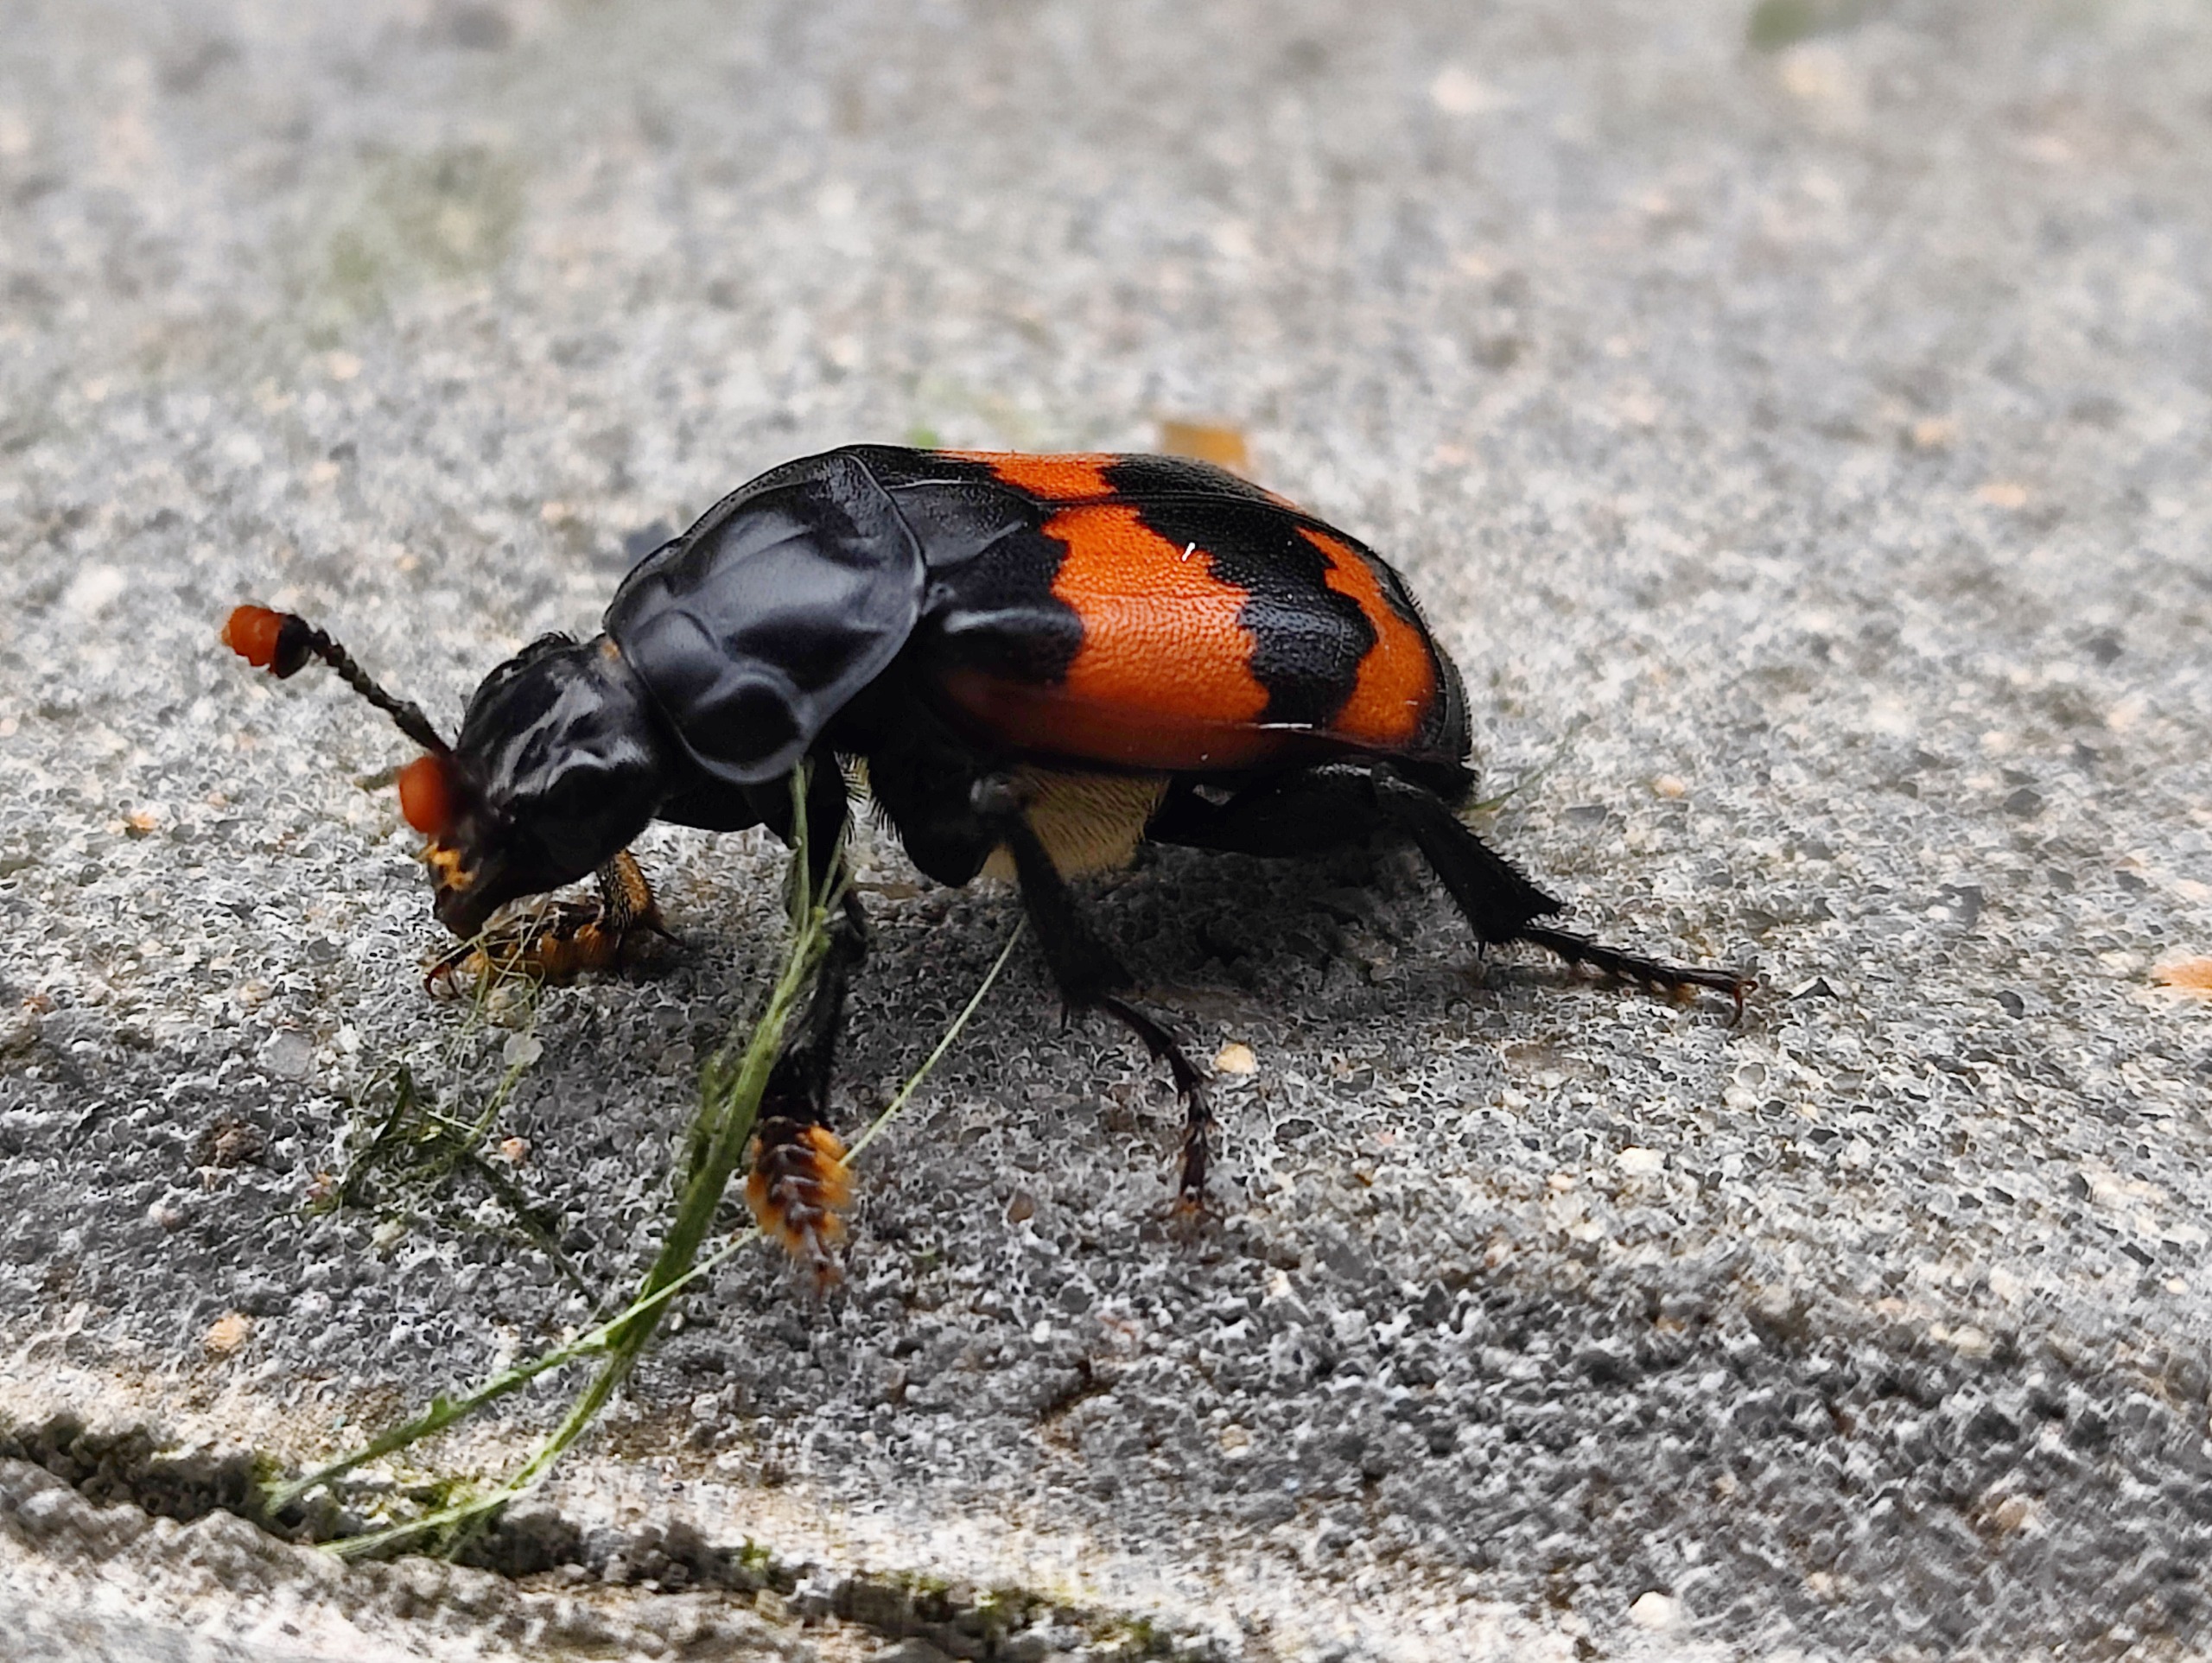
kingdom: Animalia
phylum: Arthropoda
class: Insecta
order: Coleoptera
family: Staphylinidae
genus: Nicrophorus
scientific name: Nicrophorus investigator
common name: Skovådselgraver
